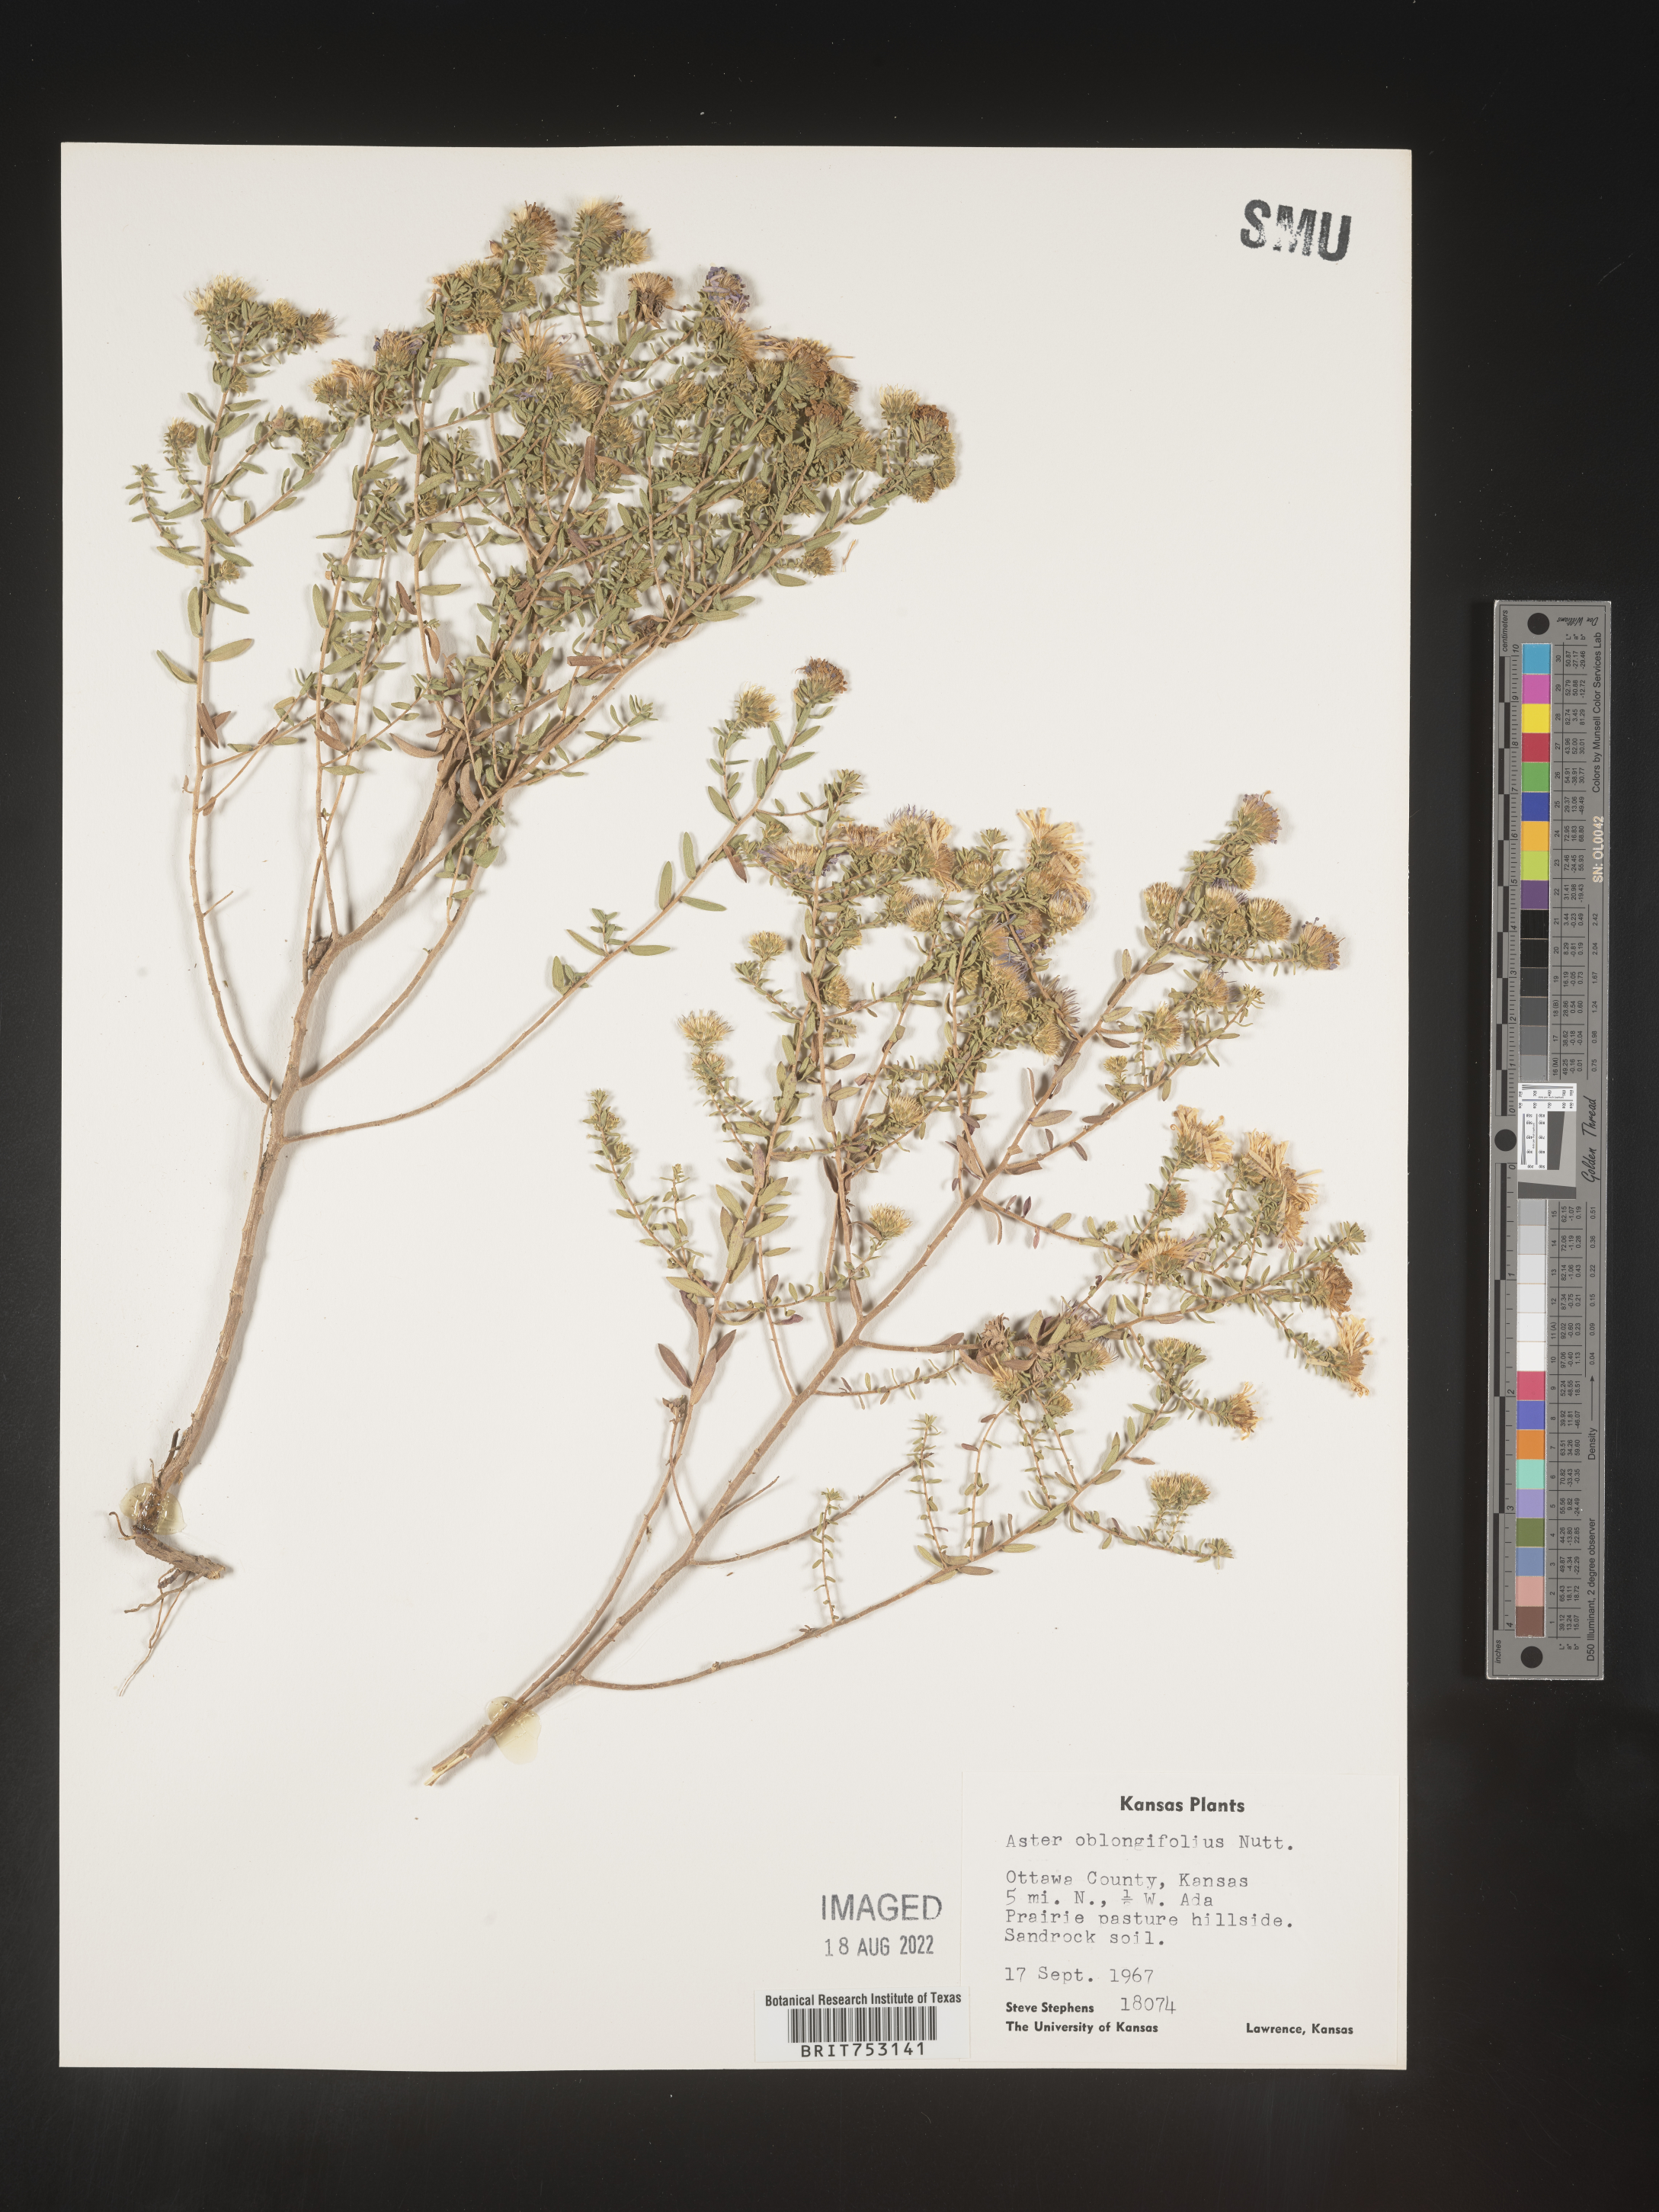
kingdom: Plantae
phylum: Tracheophyta
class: Magnoliopsida
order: Asterales
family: Asteraceae
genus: Symphyotrichum
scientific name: Symphyotrichum oblongifolium
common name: Aromatic aster
